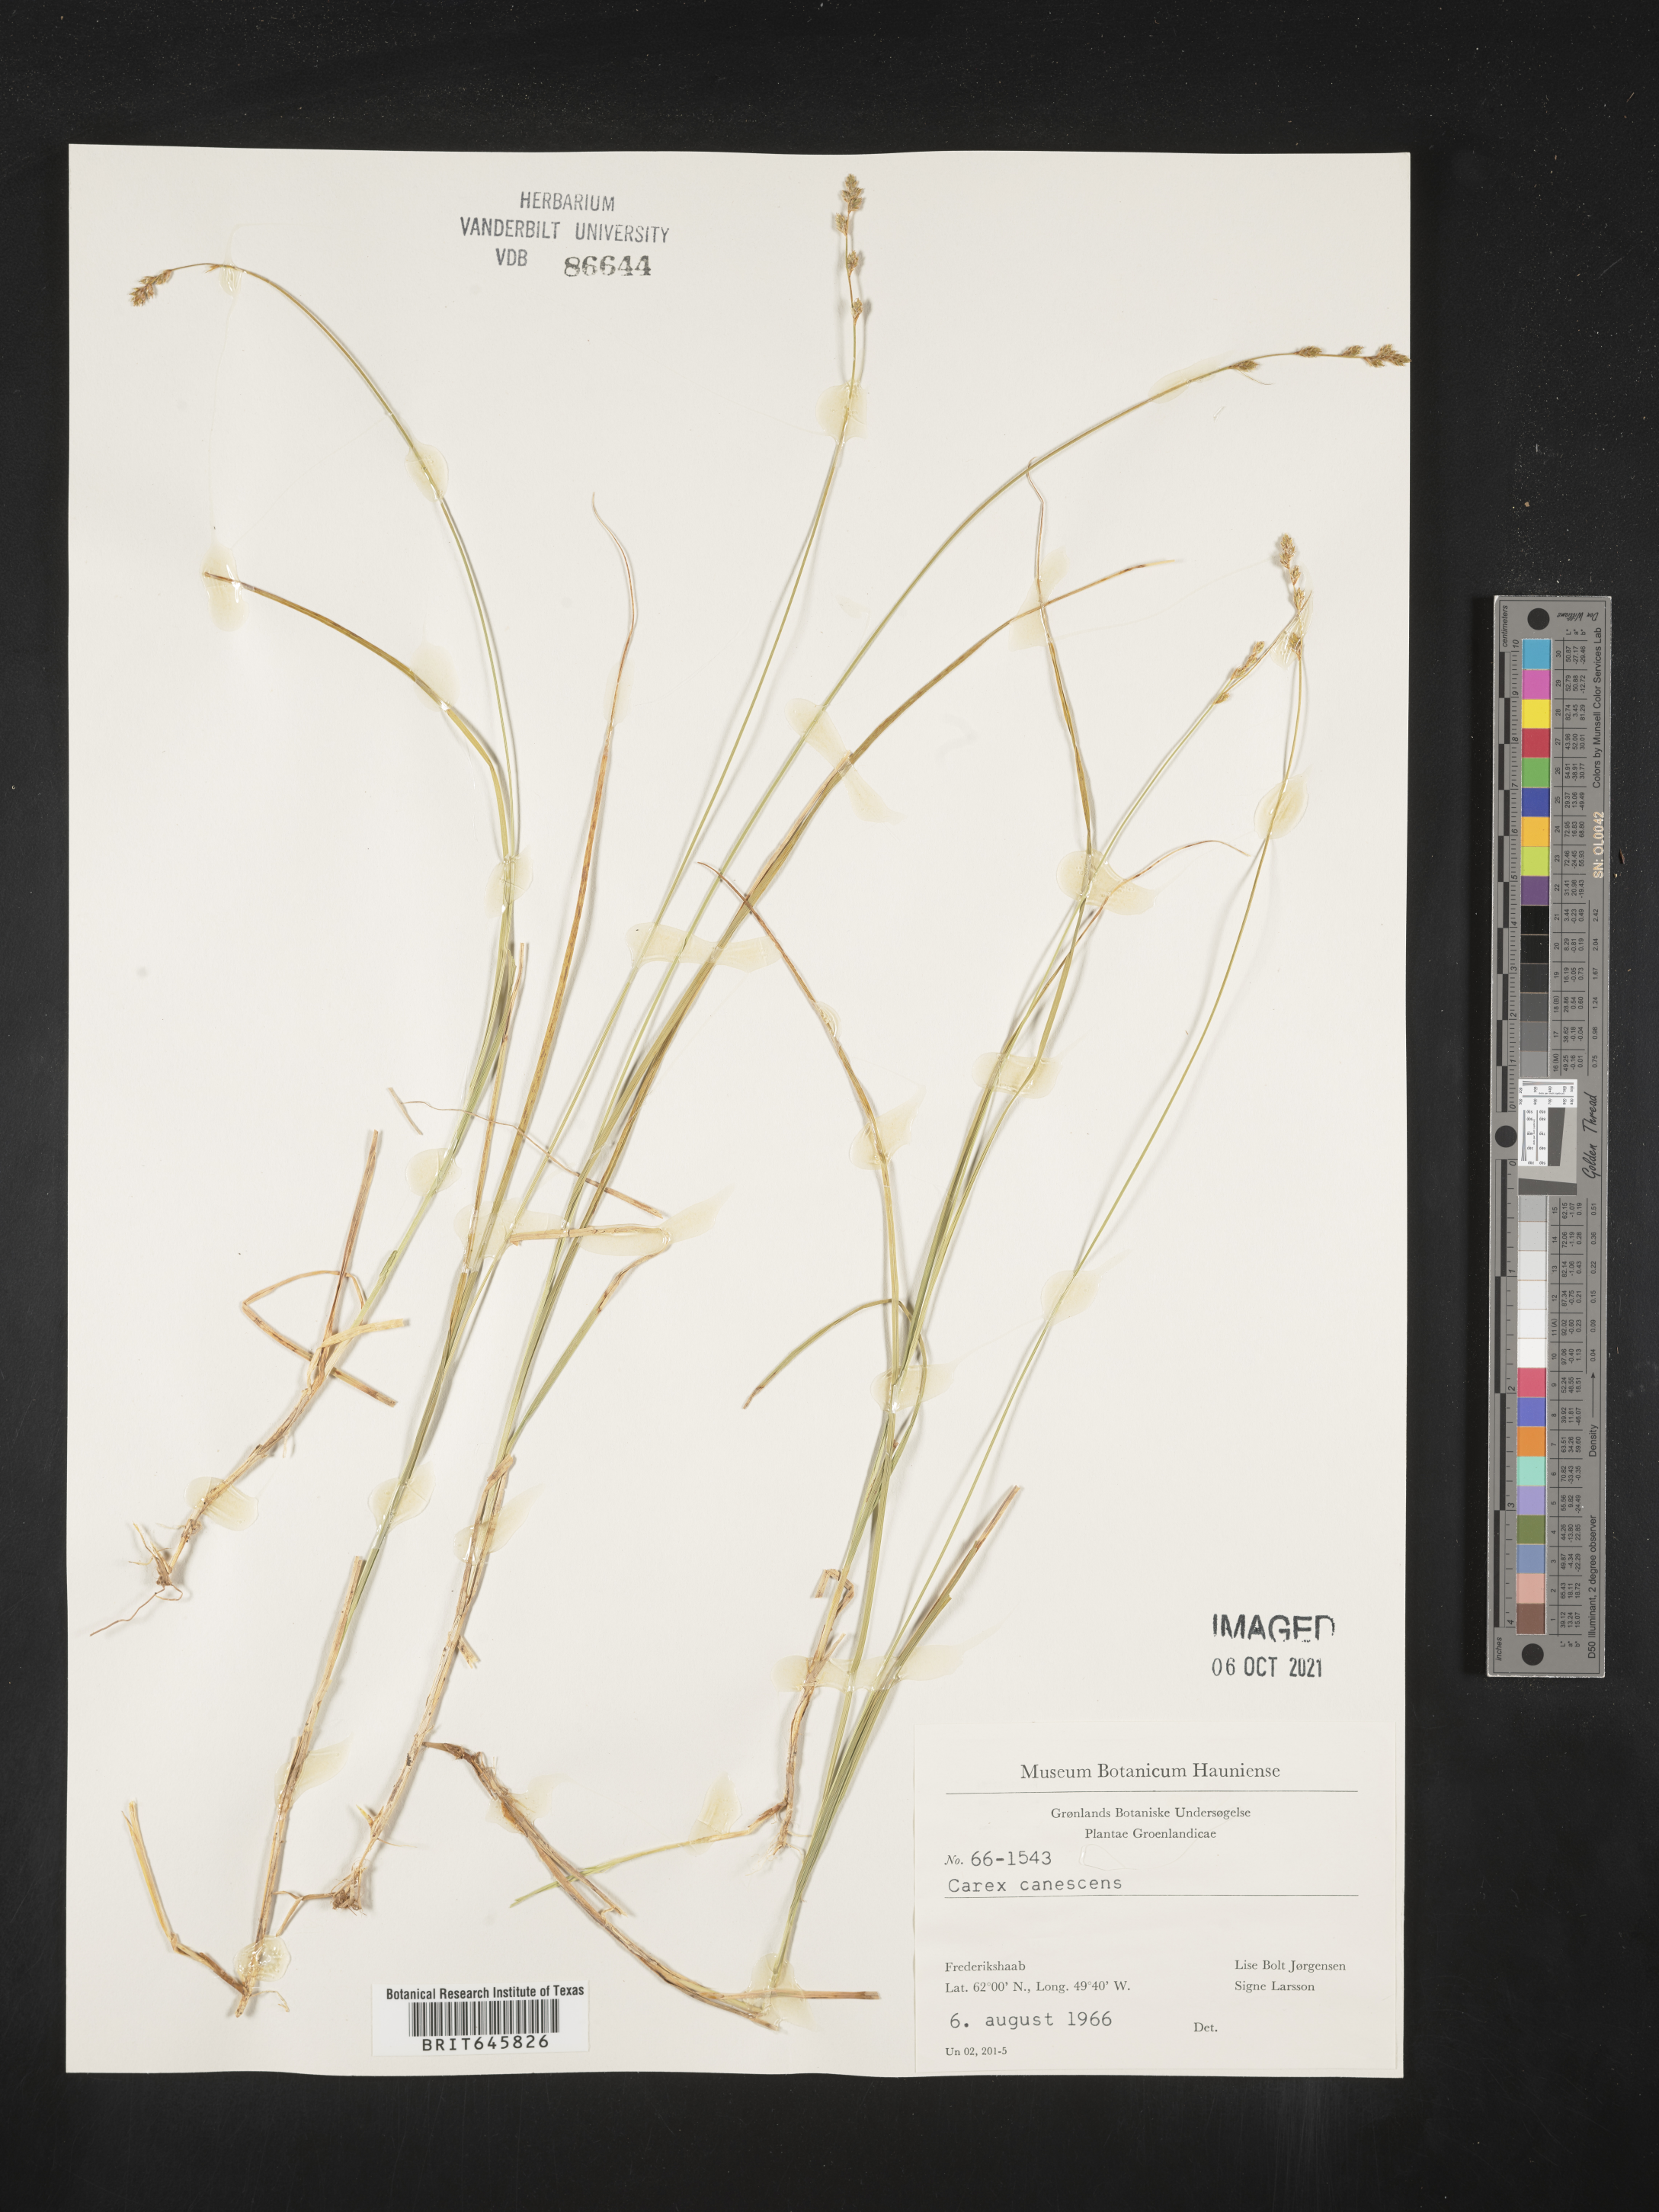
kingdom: Plantae
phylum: Tracheophyta
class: Liliopsida
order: Poales
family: Cyperaceae
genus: Carex
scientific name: Carex canescens
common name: White sedge
